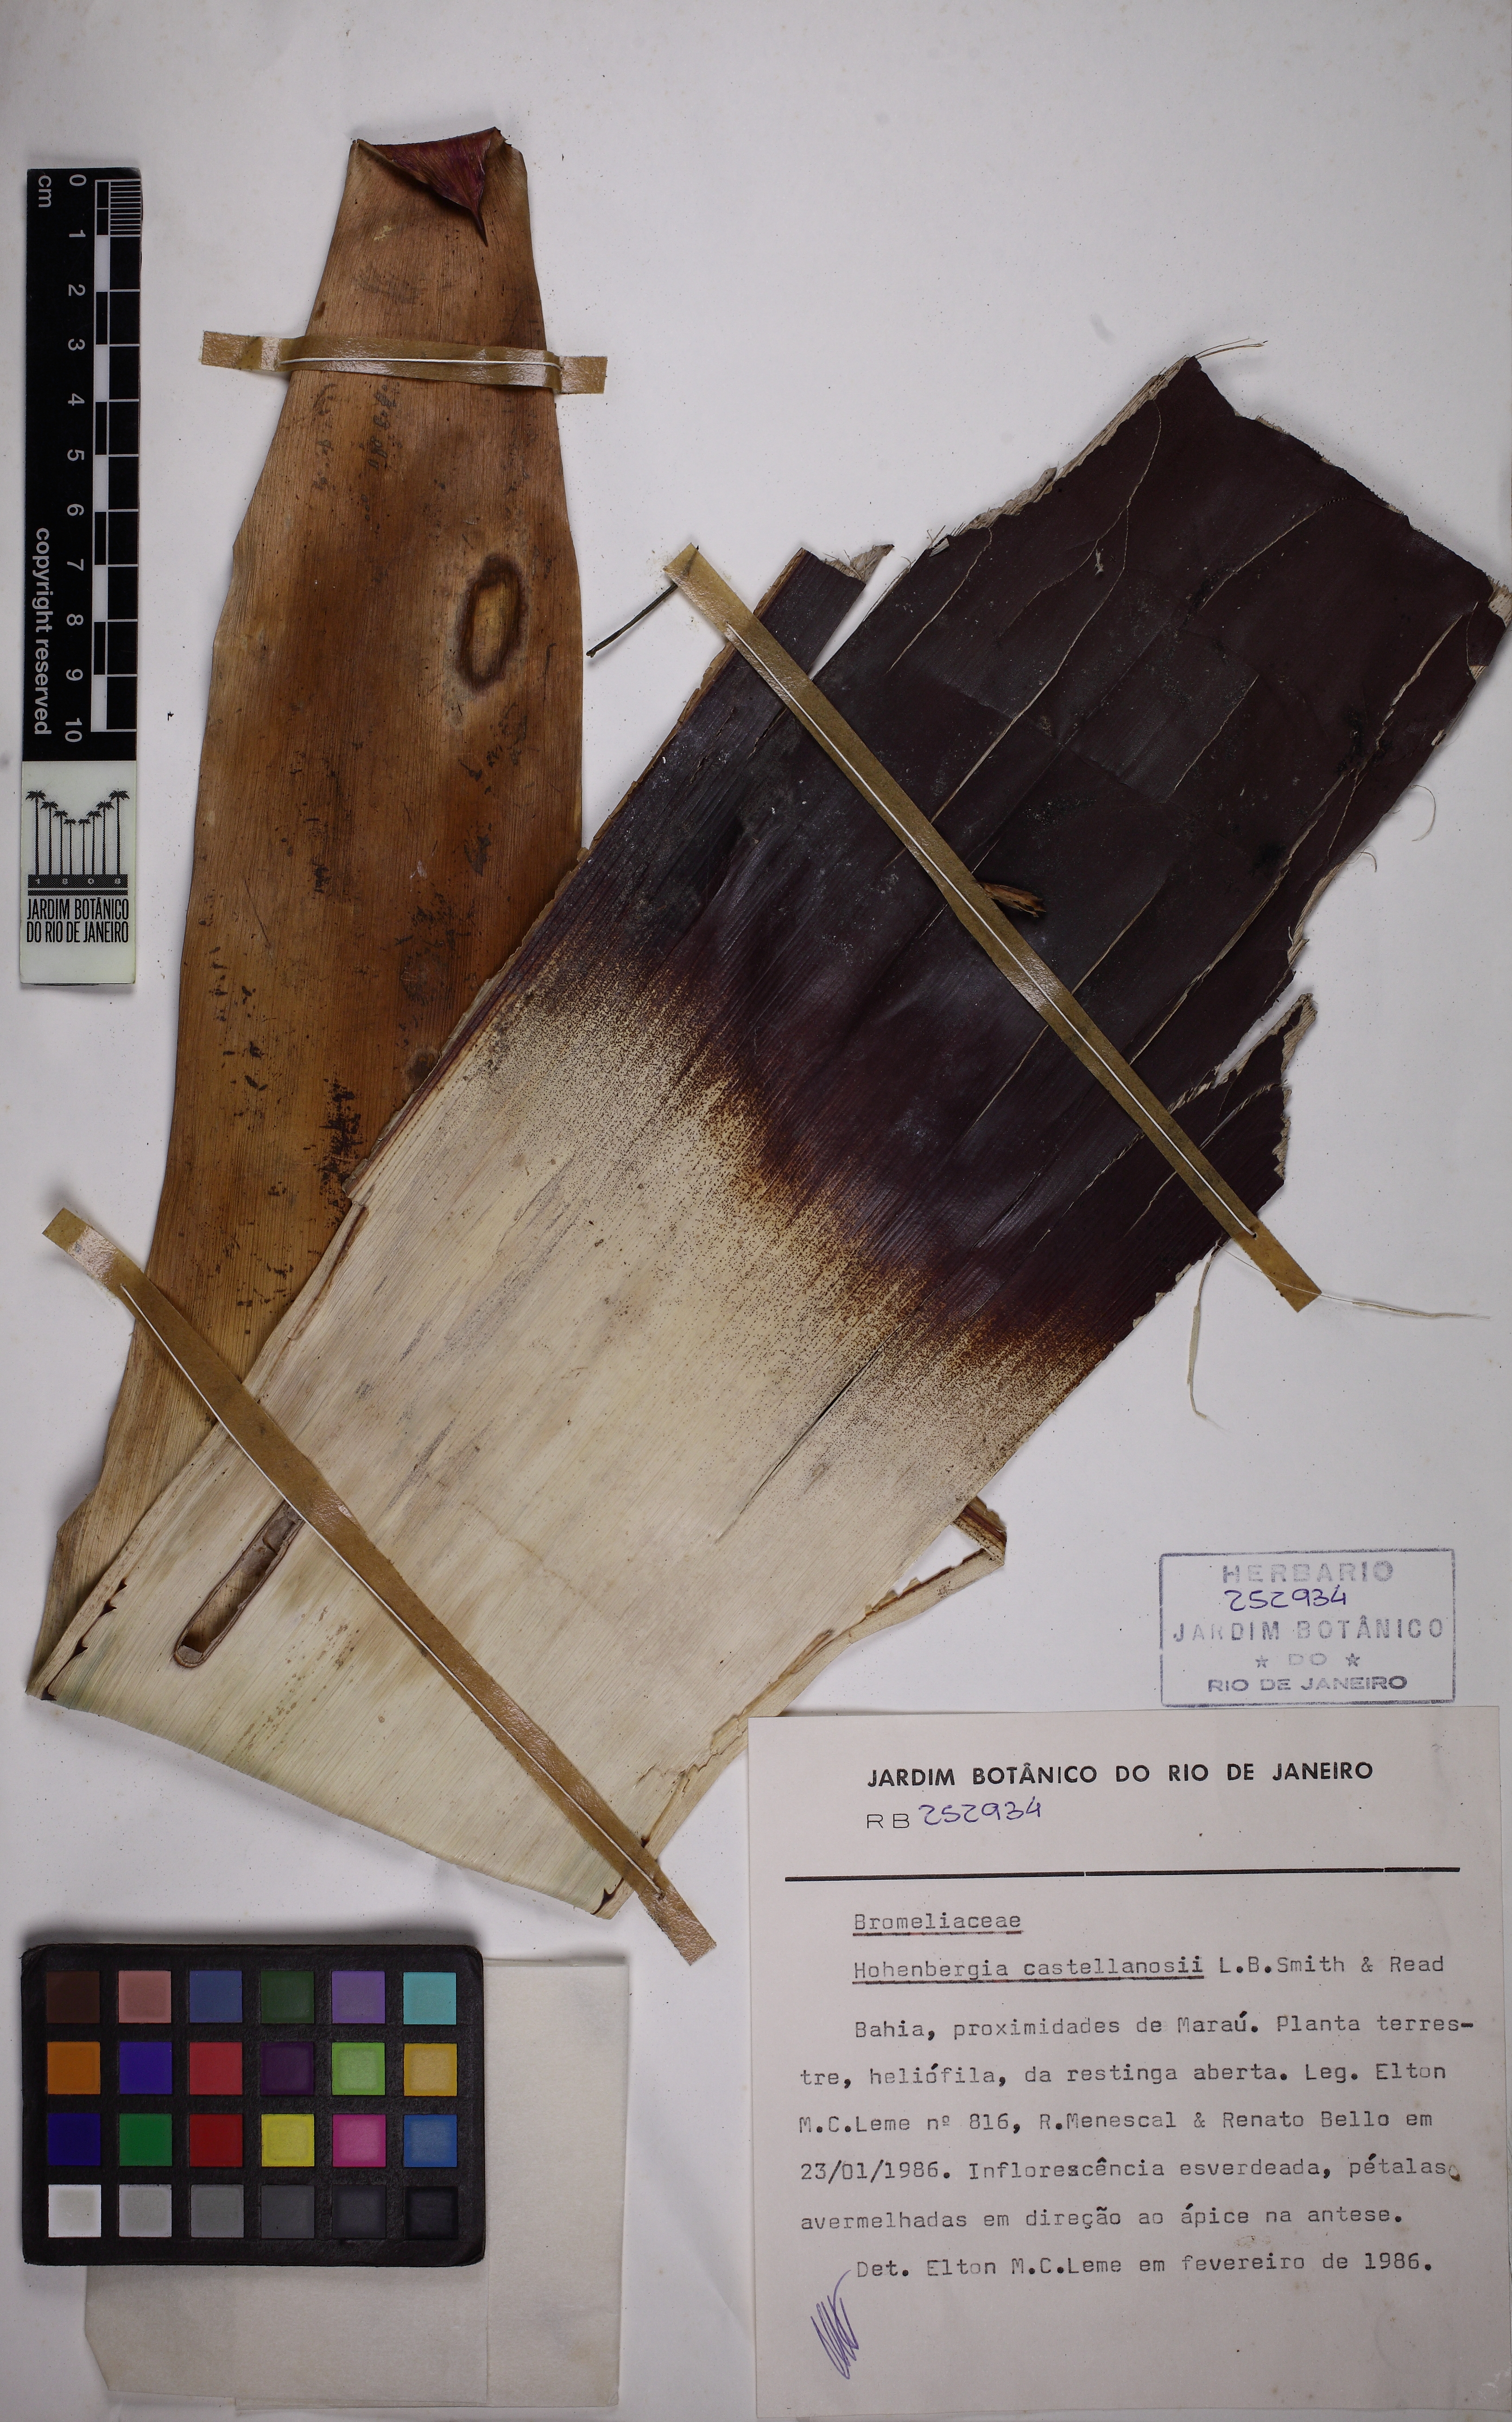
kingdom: Plantae
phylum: Tracheophyta
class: Liliopsida
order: Poales
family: Bromeliaceae
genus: Hohenbergia
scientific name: Hohenbergia castellanosii
